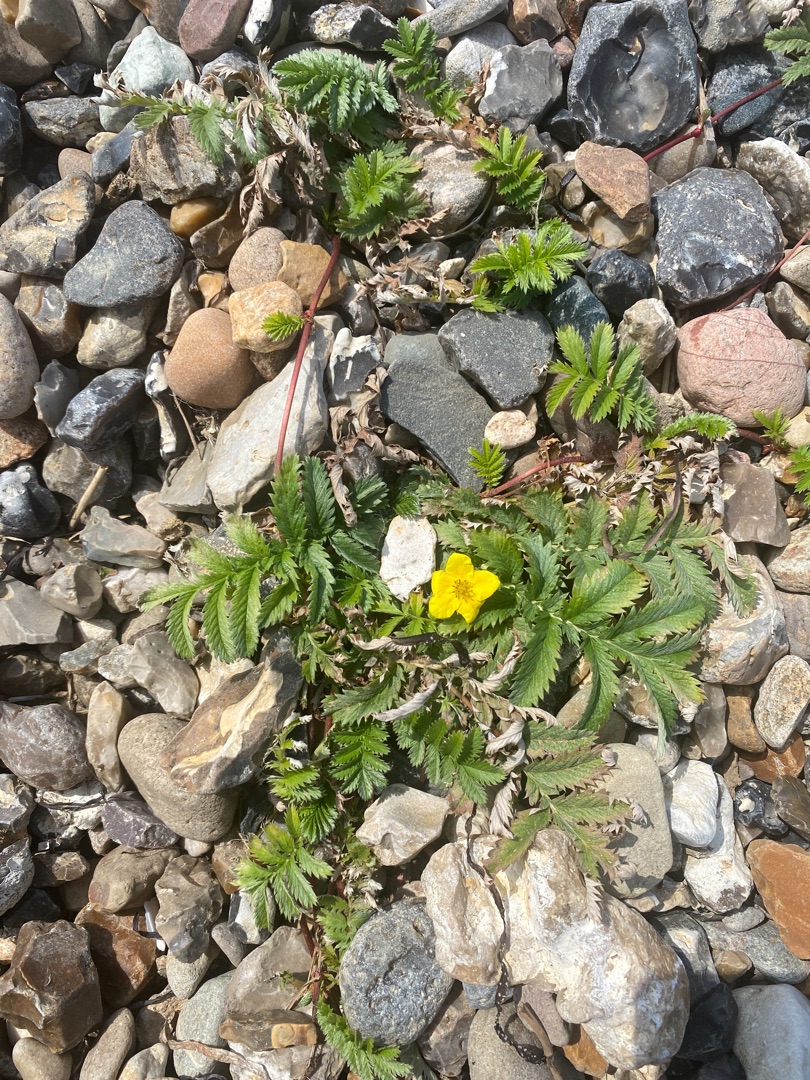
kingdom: Plantae
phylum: Tracheophyta
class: Magnoliopsida
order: Rosales
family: Rosaceae
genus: Argentina
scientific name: Argentina anserina
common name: Gåsepotentil
